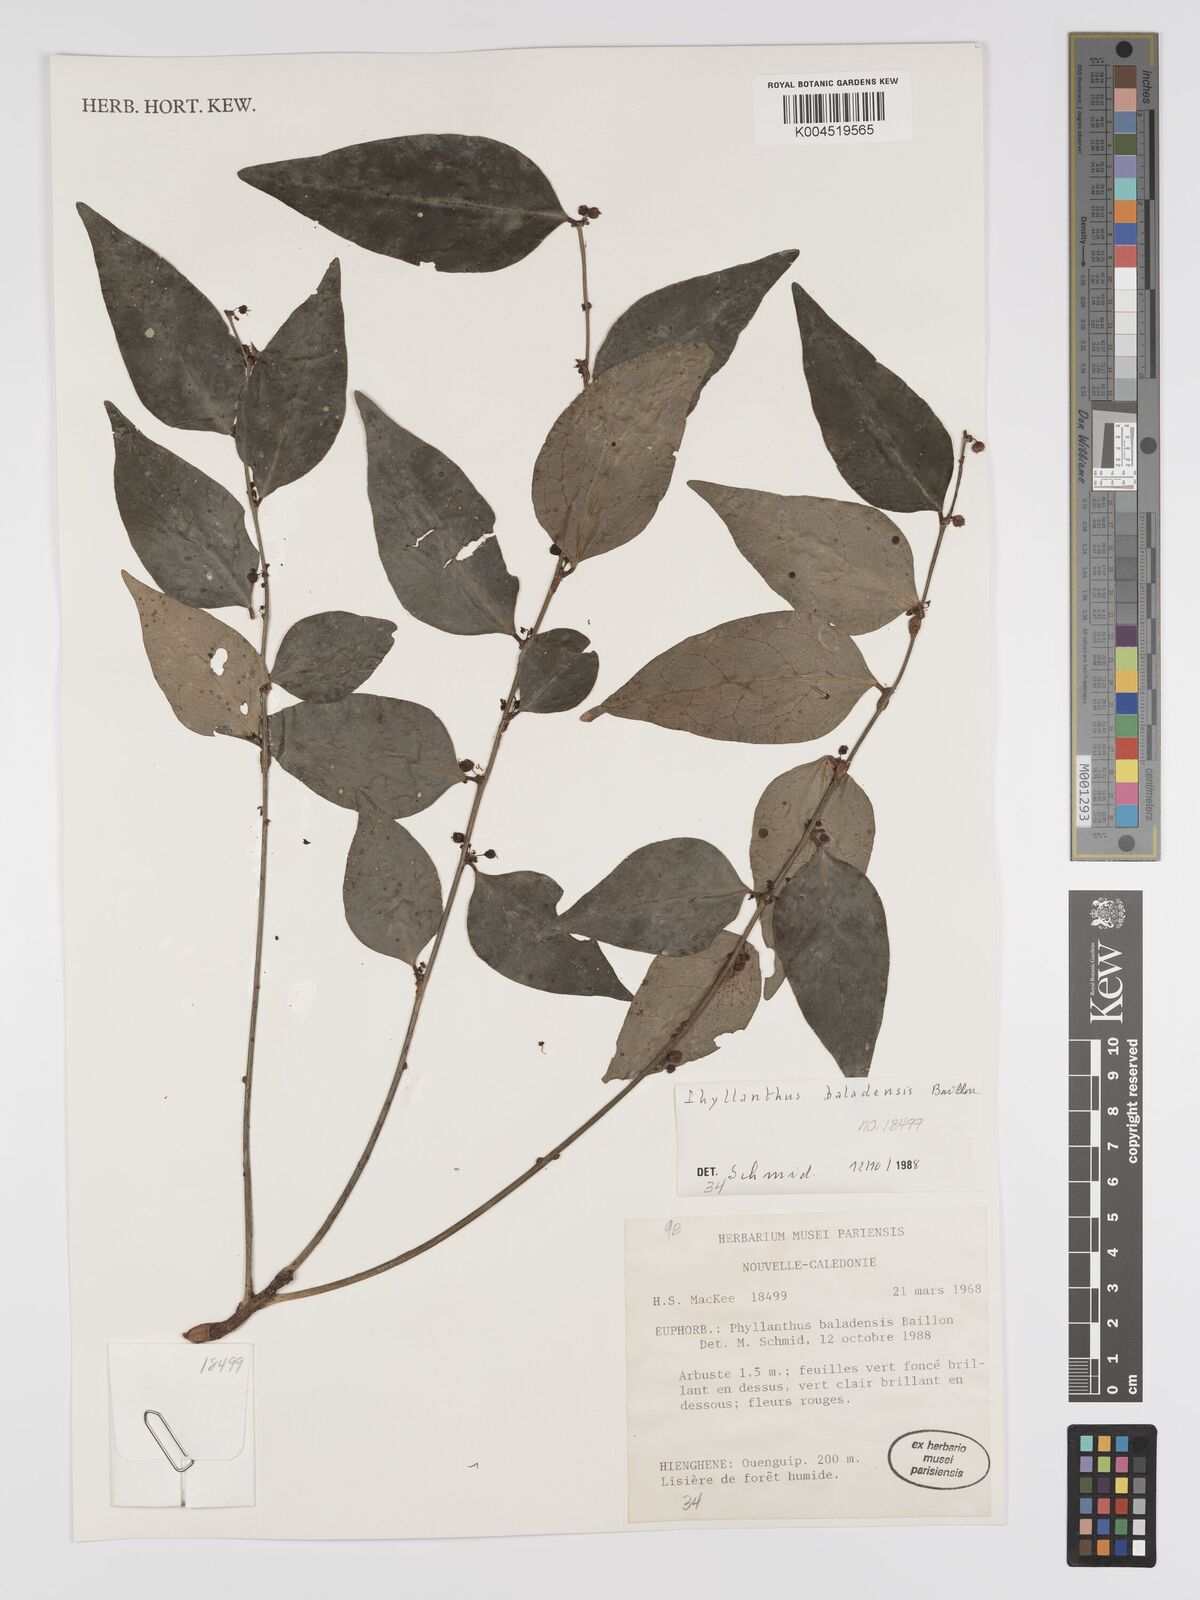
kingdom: Plantae
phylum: Tracheophyta
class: Magnoliopsida
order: Malpighiales
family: Phyllanthaceae
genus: Phyllanthus
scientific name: Phyllanthus baladensis
